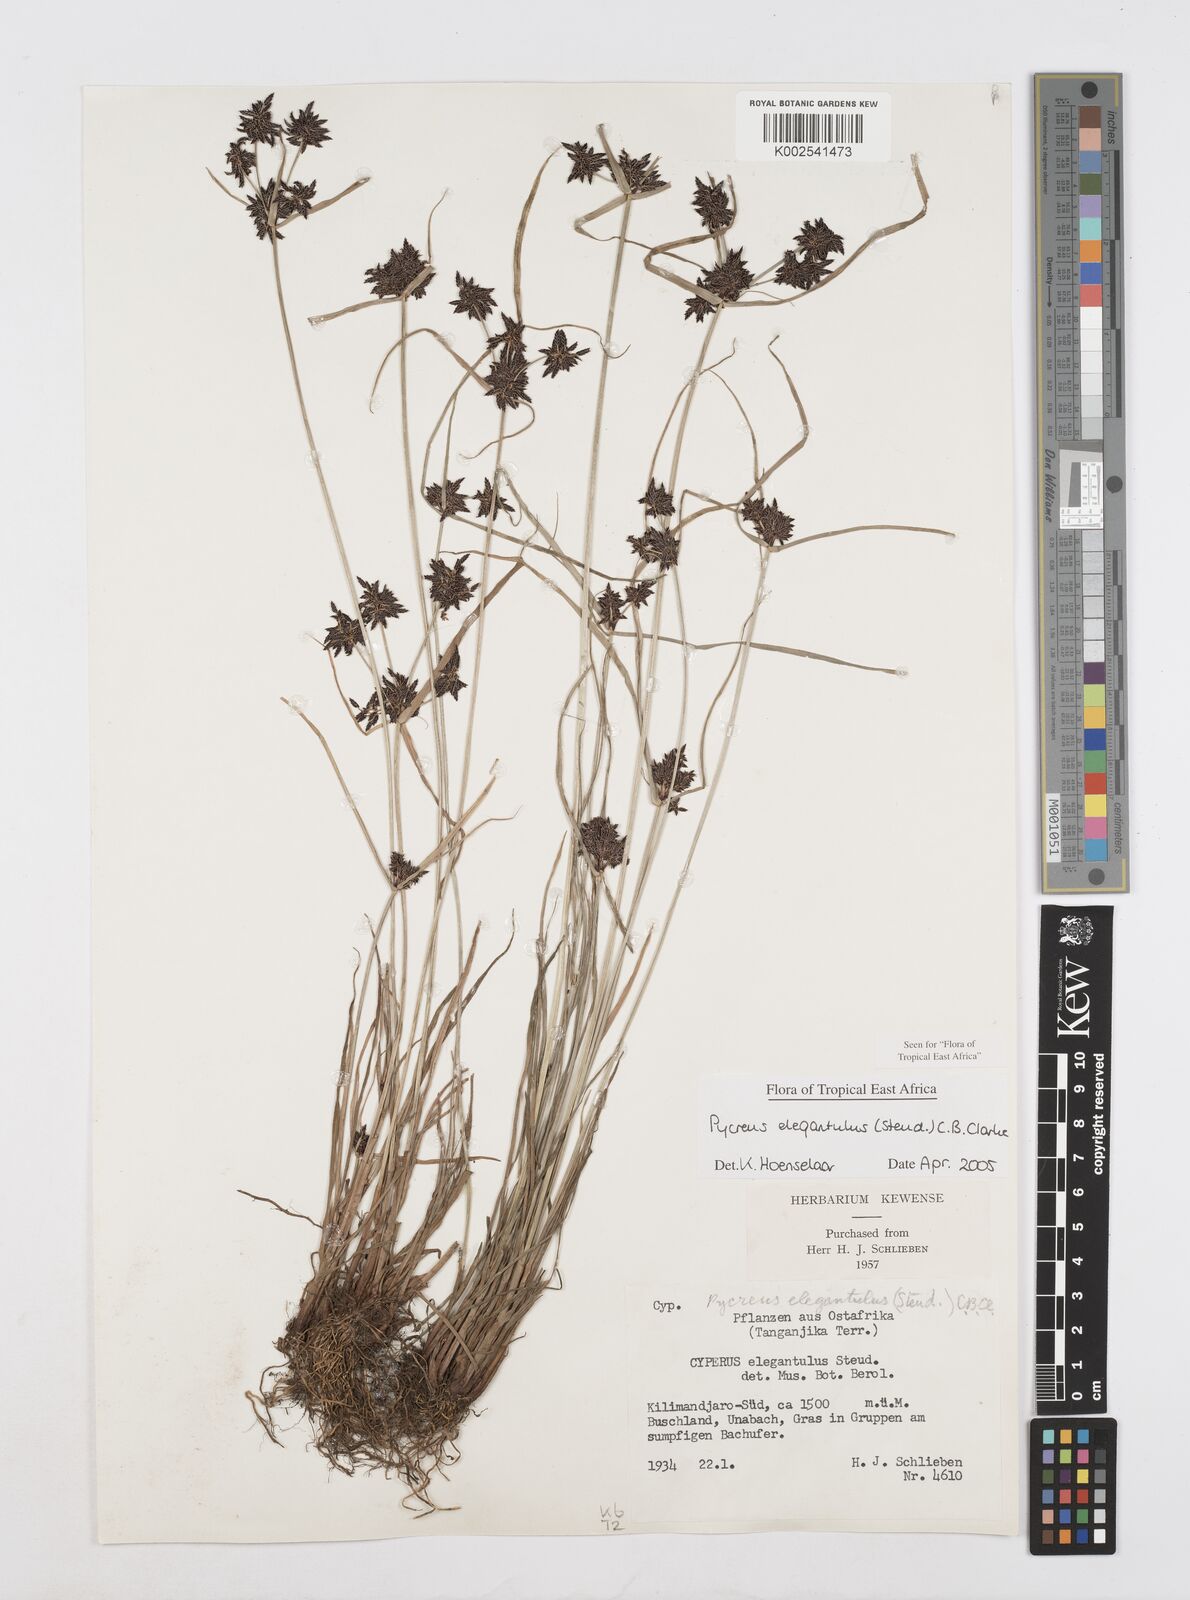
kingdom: Plantae
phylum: Tracheophyta
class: Liliopsida
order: Poales
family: Cyperaceae
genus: Cyperus
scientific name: Cyperus elegantulus
